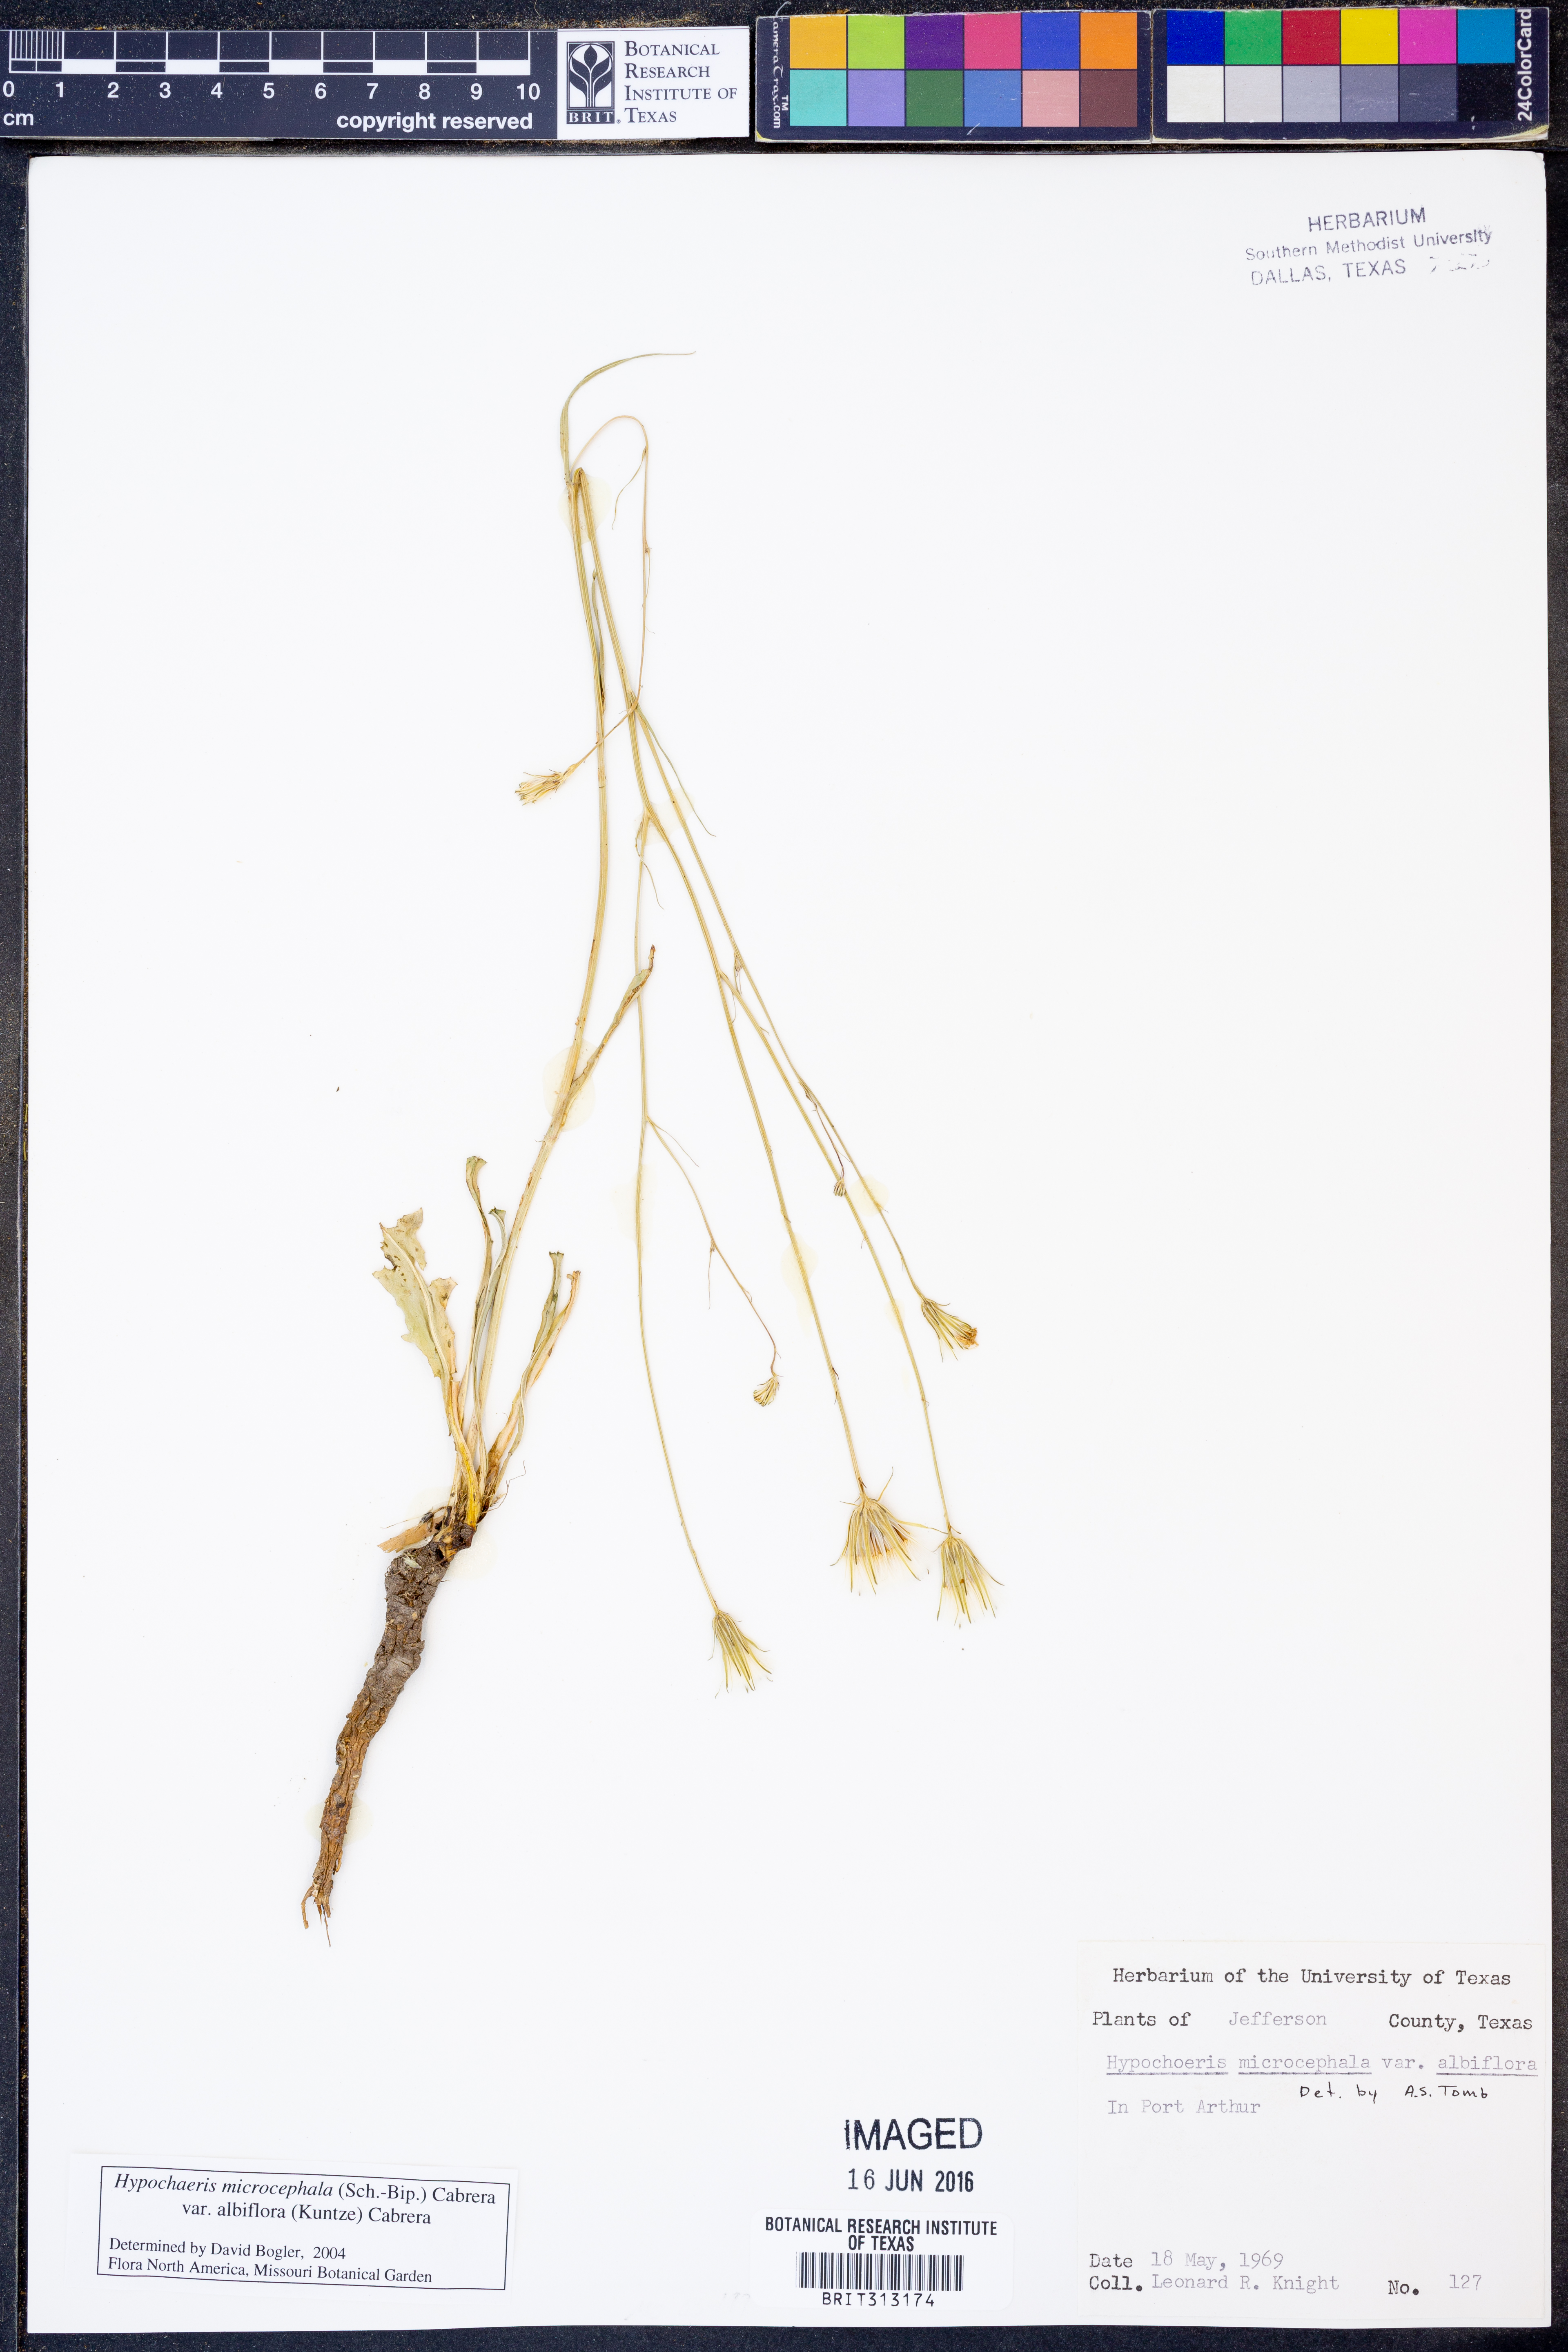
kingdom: Plantae
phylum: Tracheophyta
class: Magnoliopsida
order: Asterales
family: Asteraceae
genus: Hypochaeris
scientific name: Hypochaeris albiflora
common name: White flatweed
